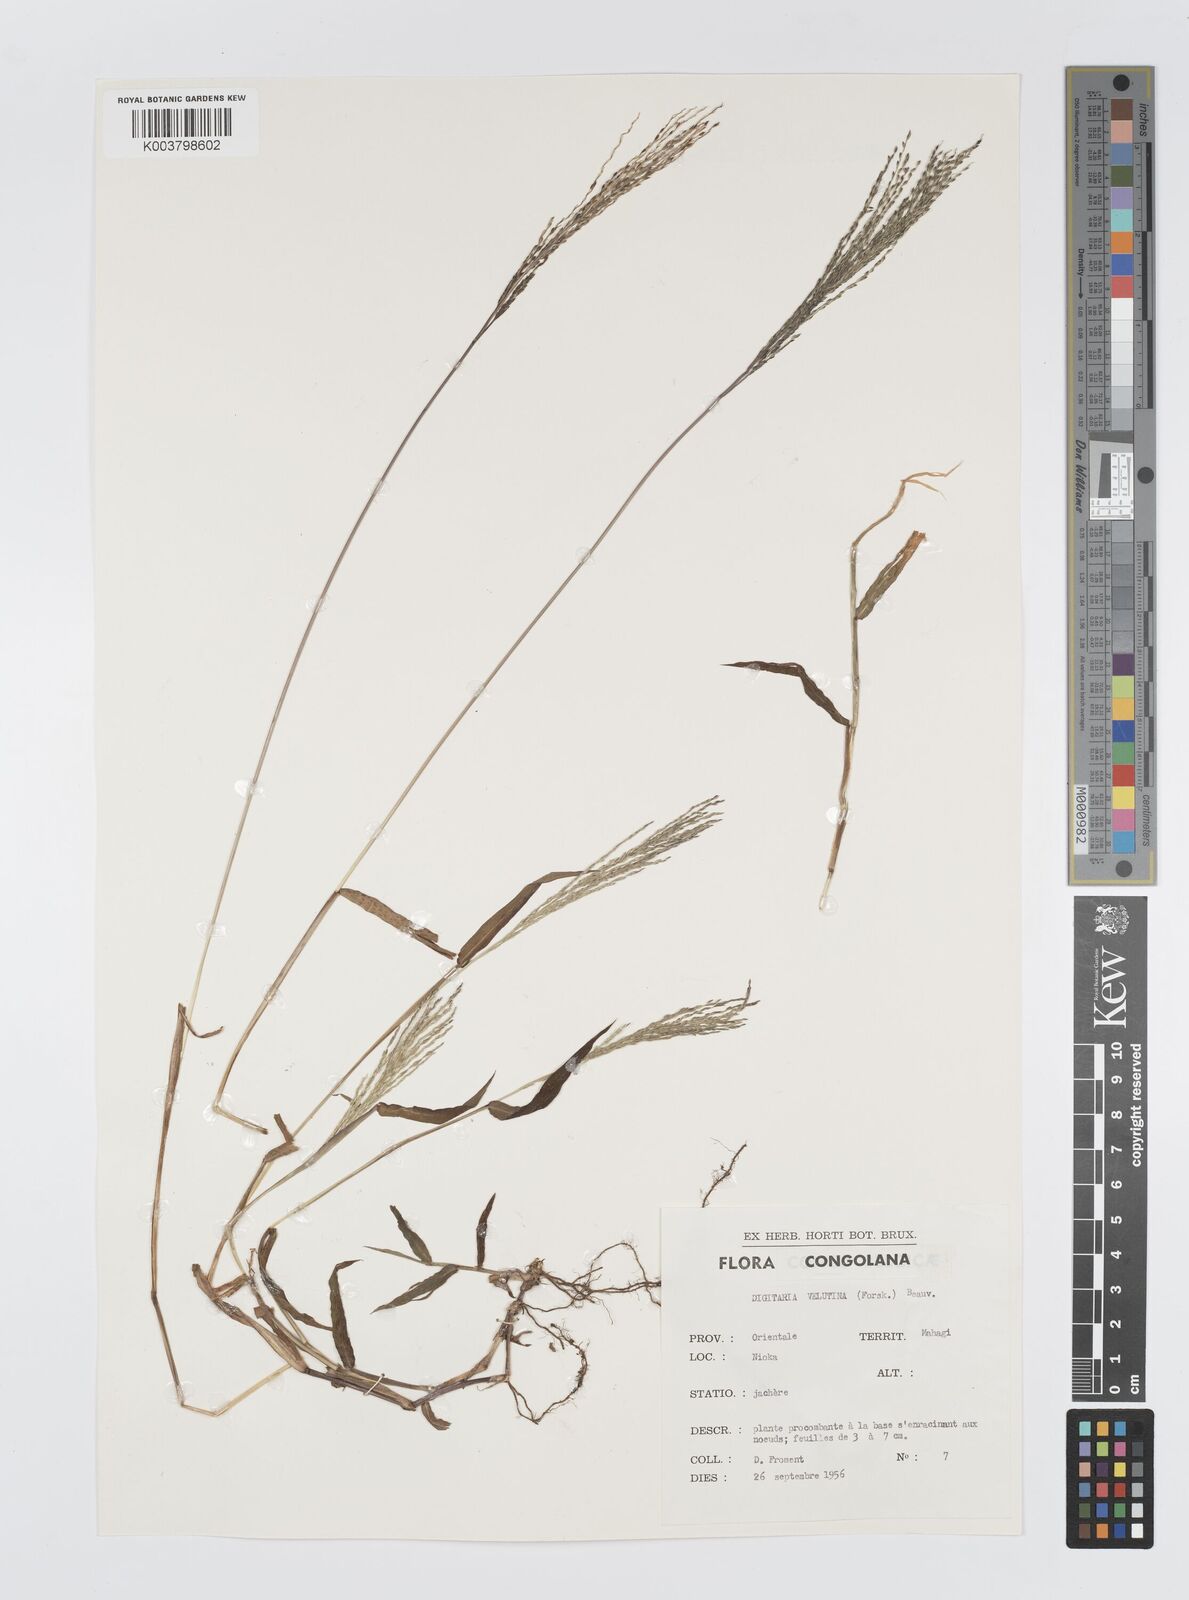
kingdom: Plantae
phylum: Tracheophyta
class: Liliopsida
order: Poales
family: Poaceae
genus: Digitaria
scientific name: Digitaria velutina
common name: Long-plume finger grass
